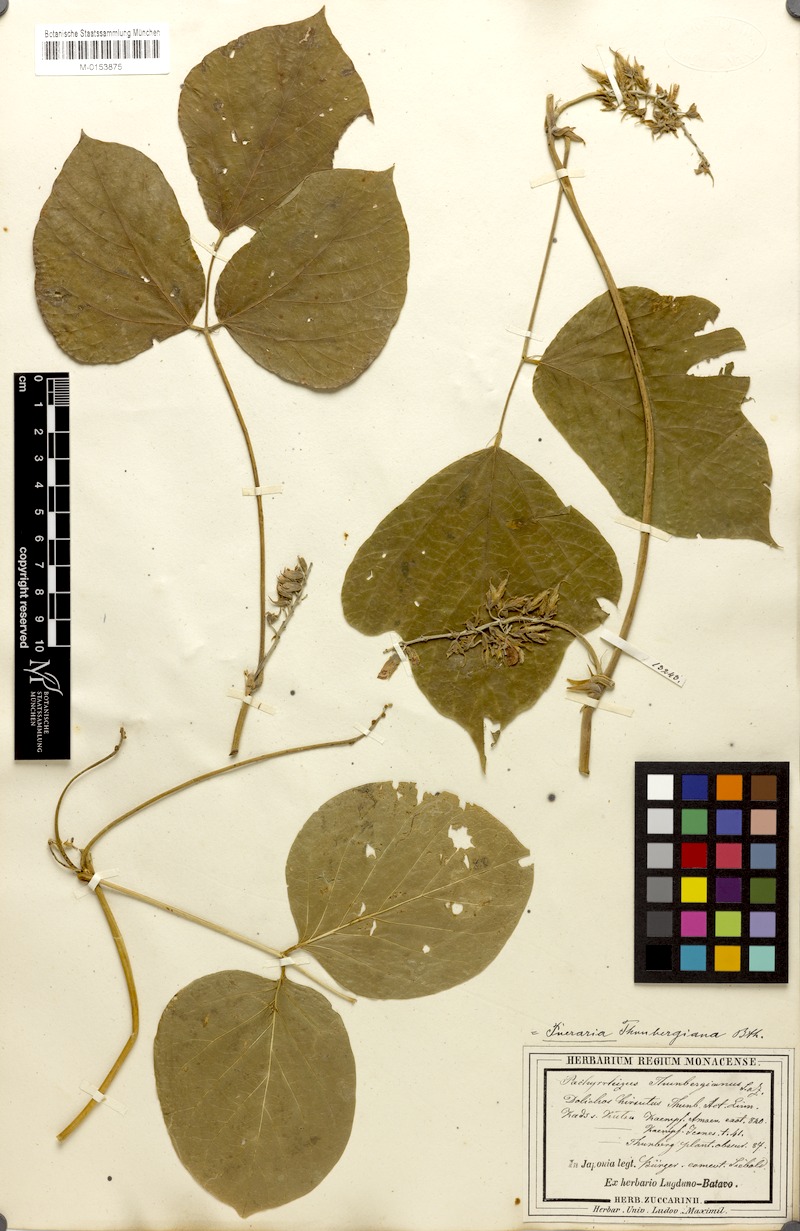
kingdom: Plantae
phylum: Tracheophyta
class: Magnoliopsida
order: Fabales
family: Fabaceae
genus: Pueraria
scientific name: Pueraria montana
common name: Kudzu
